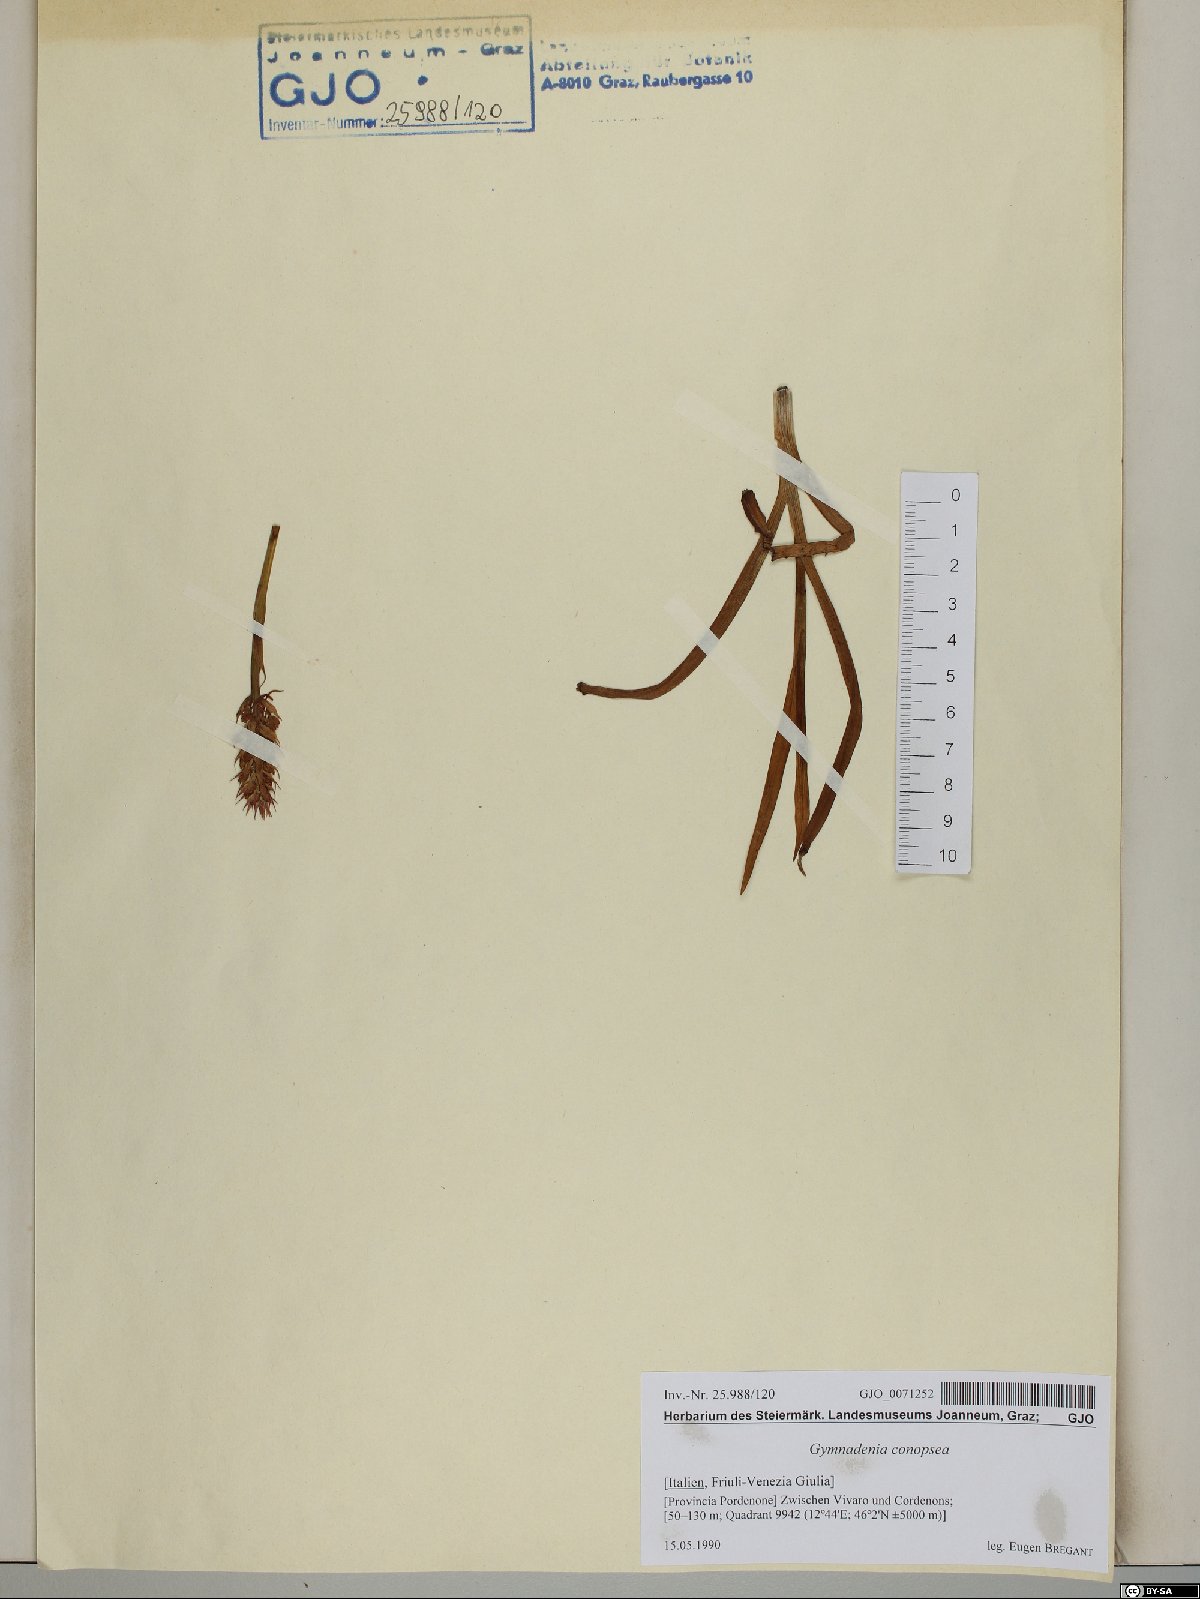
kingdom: Plantae
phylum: Tracheophyta
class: Liliopsida
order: Asparagales
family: Orchidaceae
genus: Gymnadenia
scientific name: Gymnadenia conopsea
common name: Fragrant orchid
